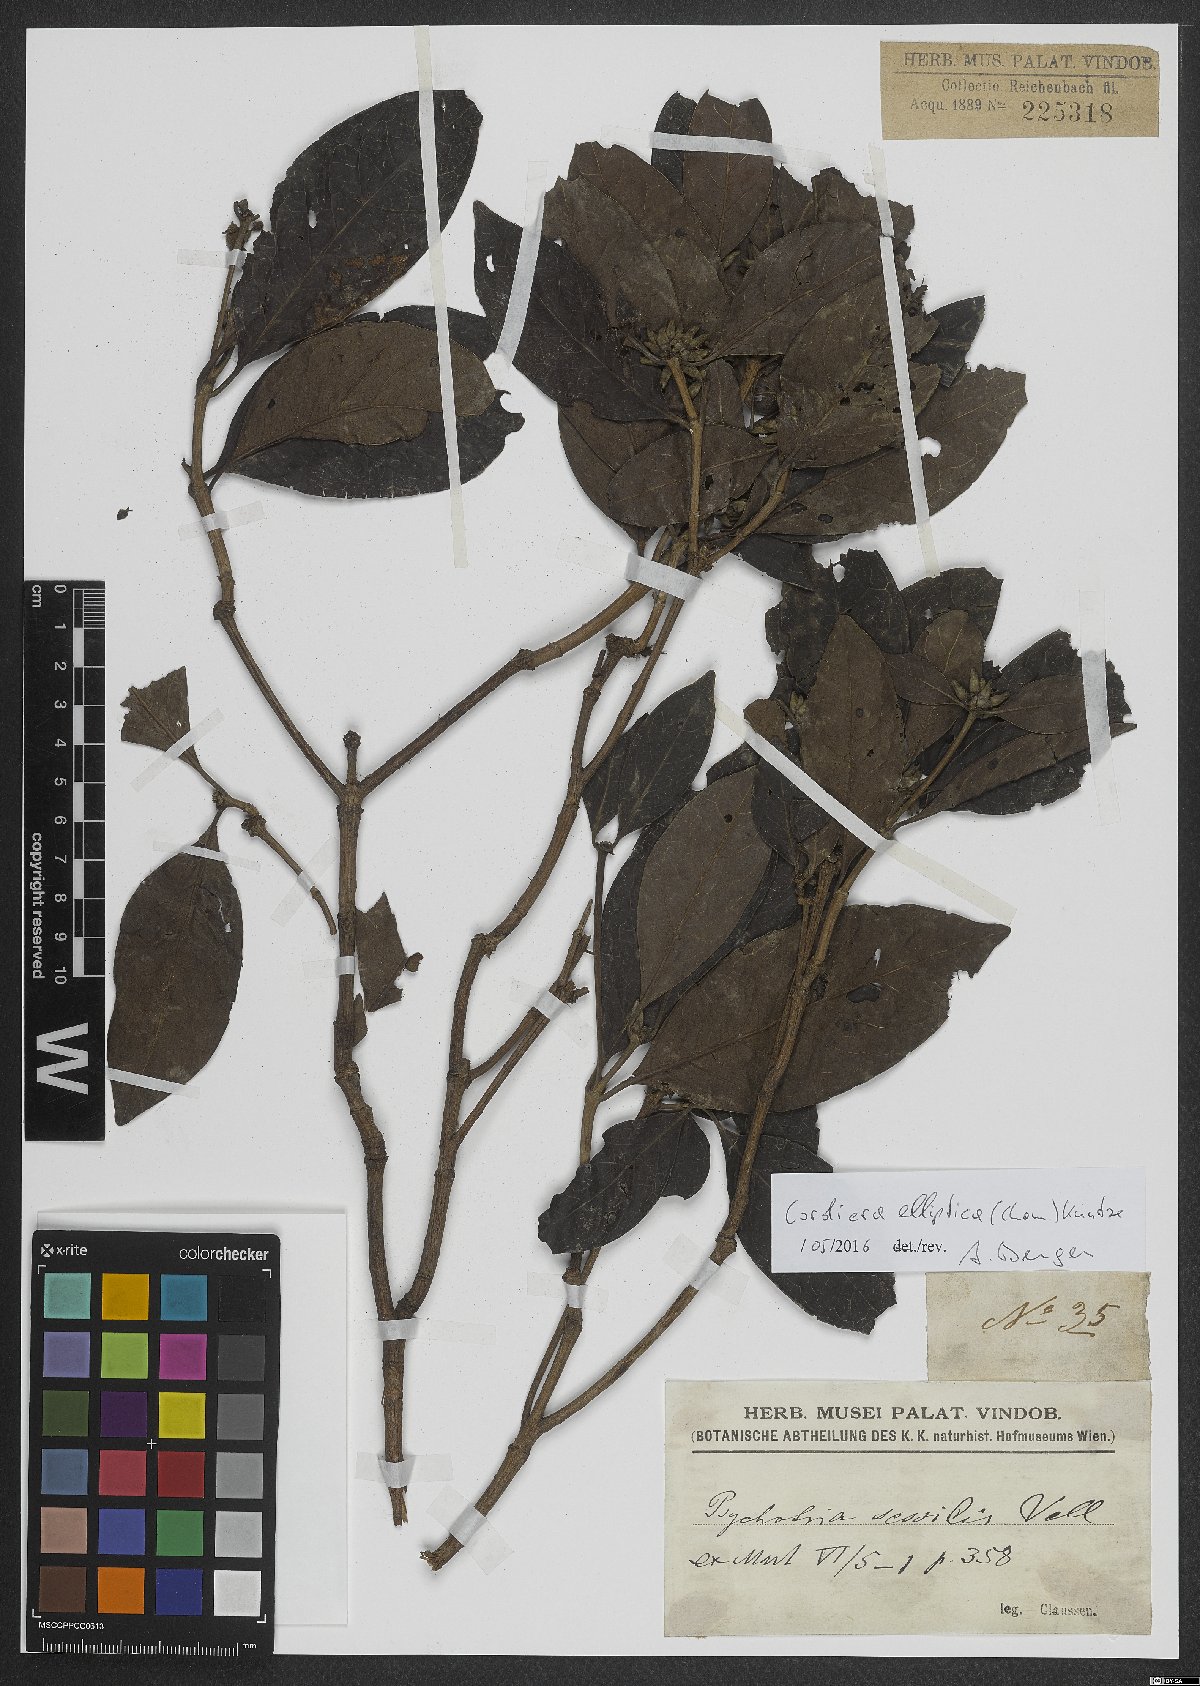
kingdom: Plantae
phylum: Tracheophyta
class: Magnoliopsida
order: Gentianales
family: Rubiaceae
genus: Cordiera
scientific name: Cordiera elliptica
